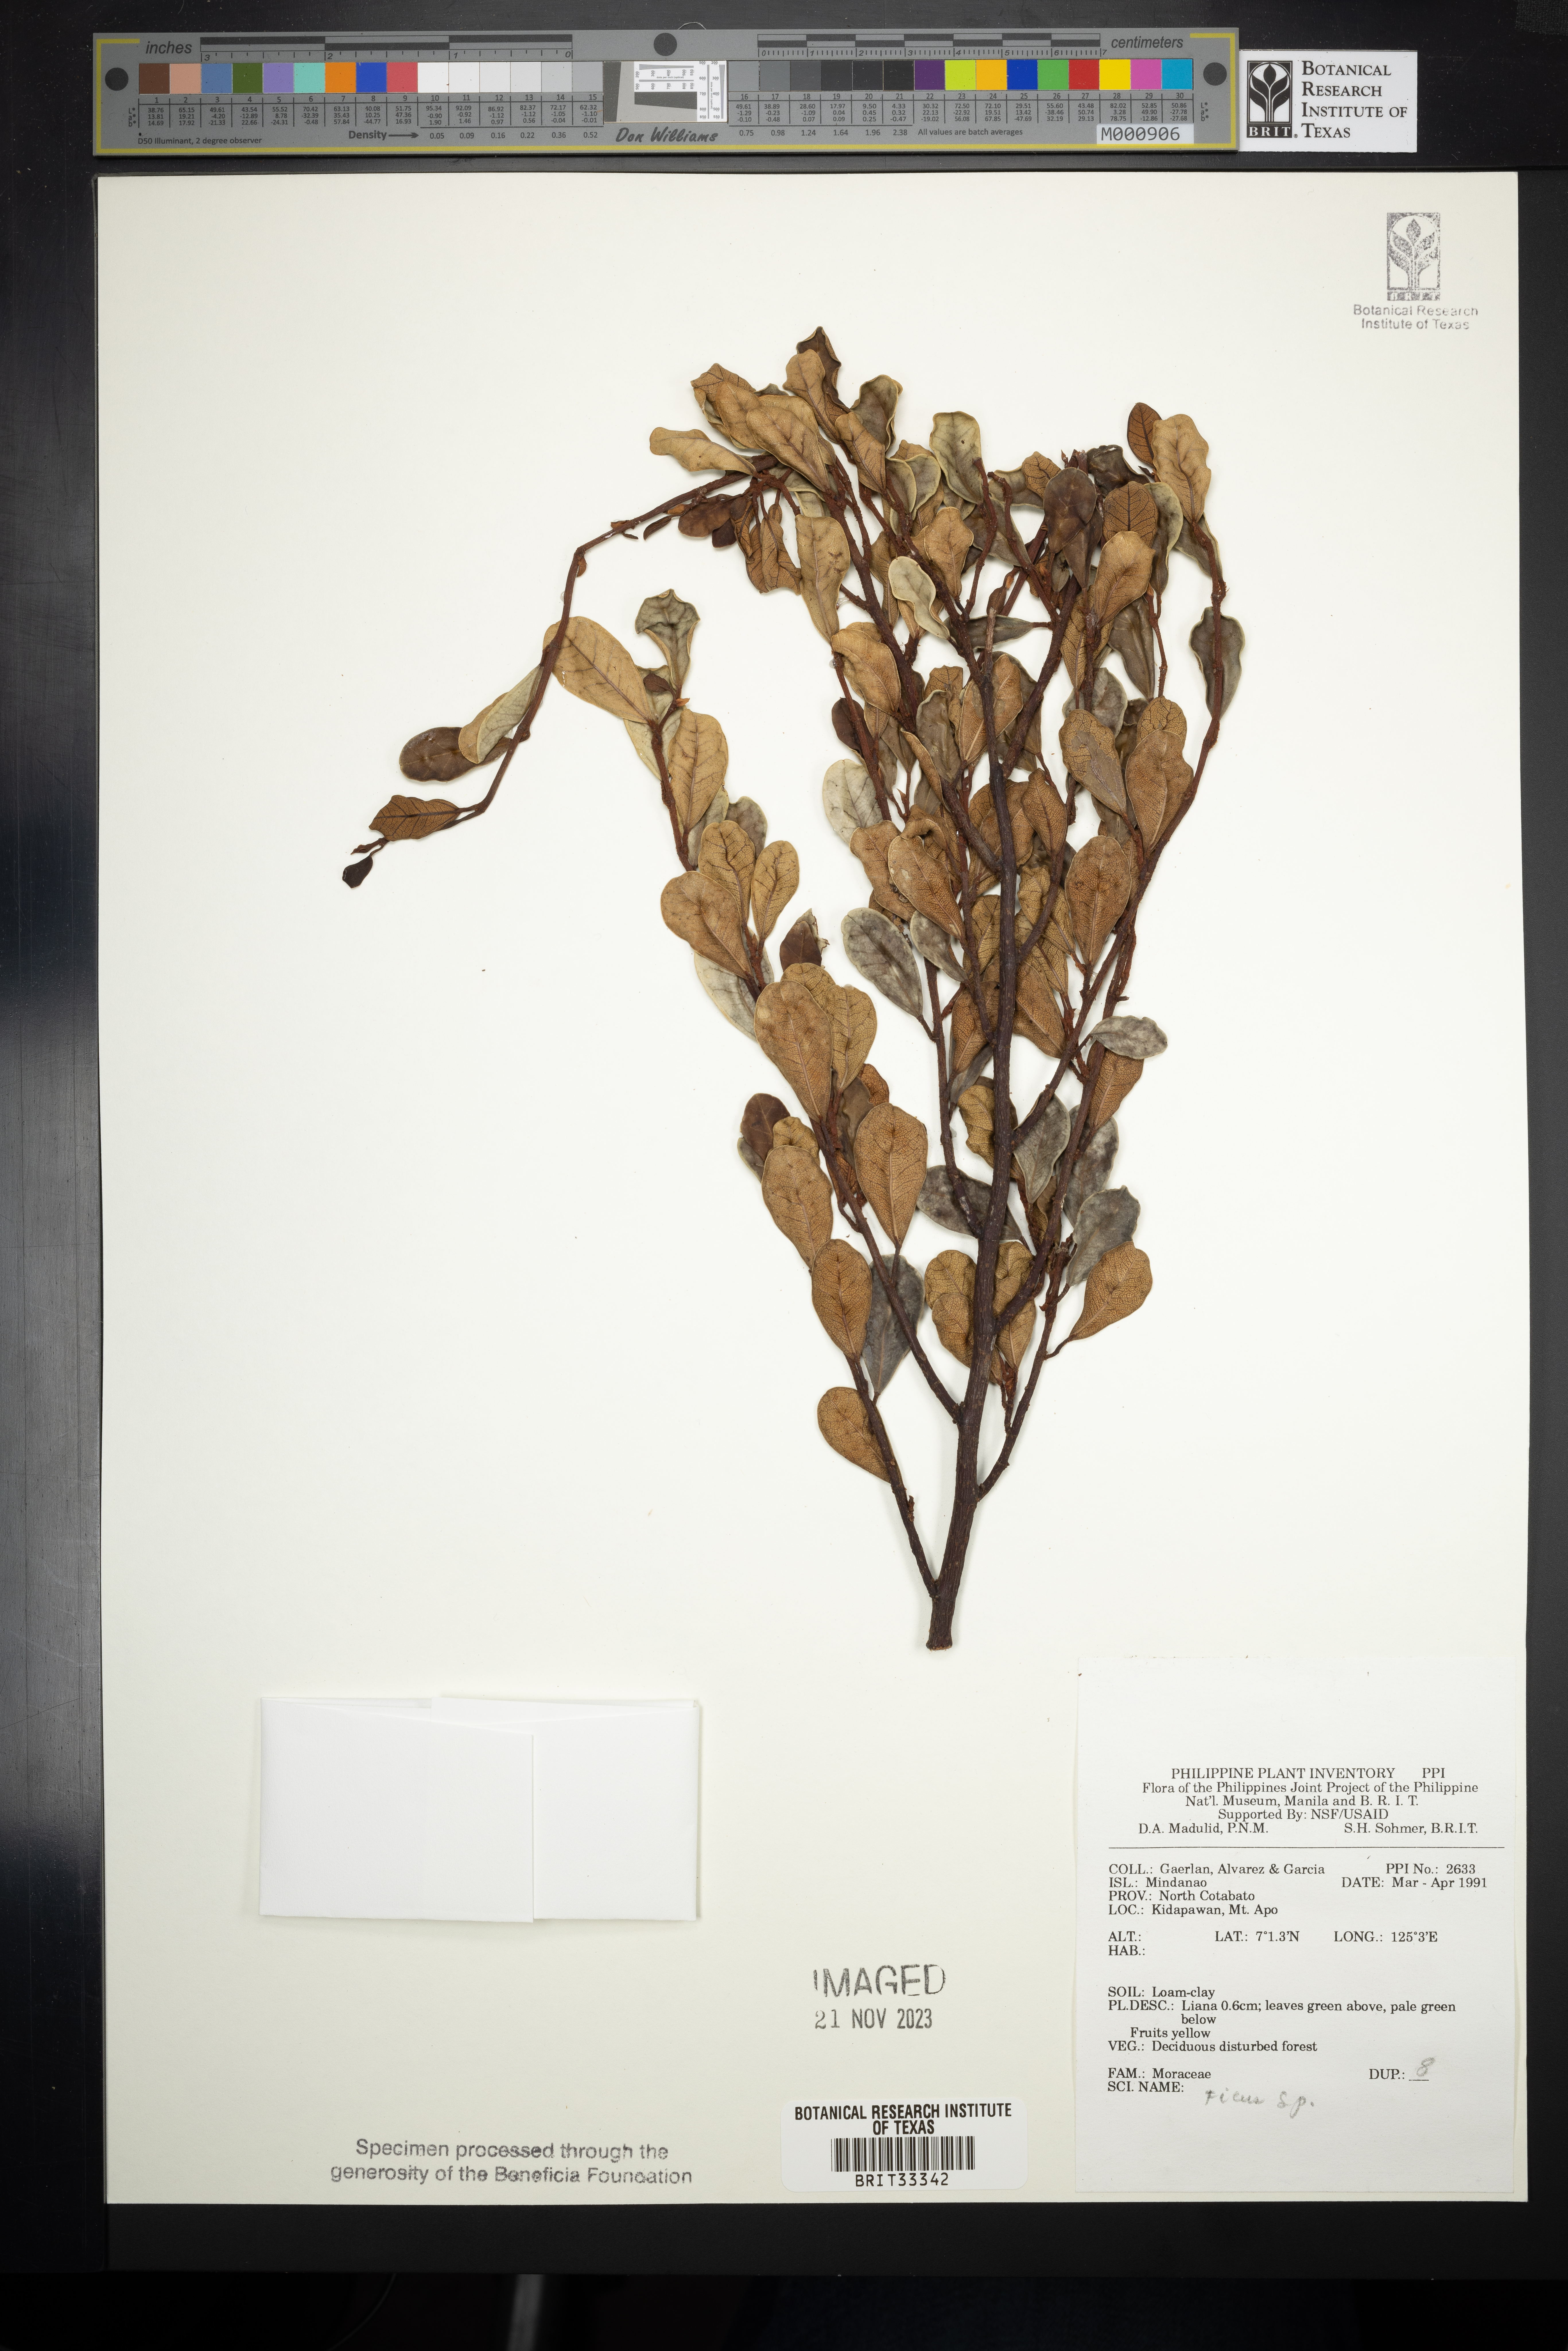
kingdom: Plantae
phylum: Tracheophyta
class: Magnoliopsida
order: Rosales
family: Moraceae
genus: Ficus
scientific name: Ficus
